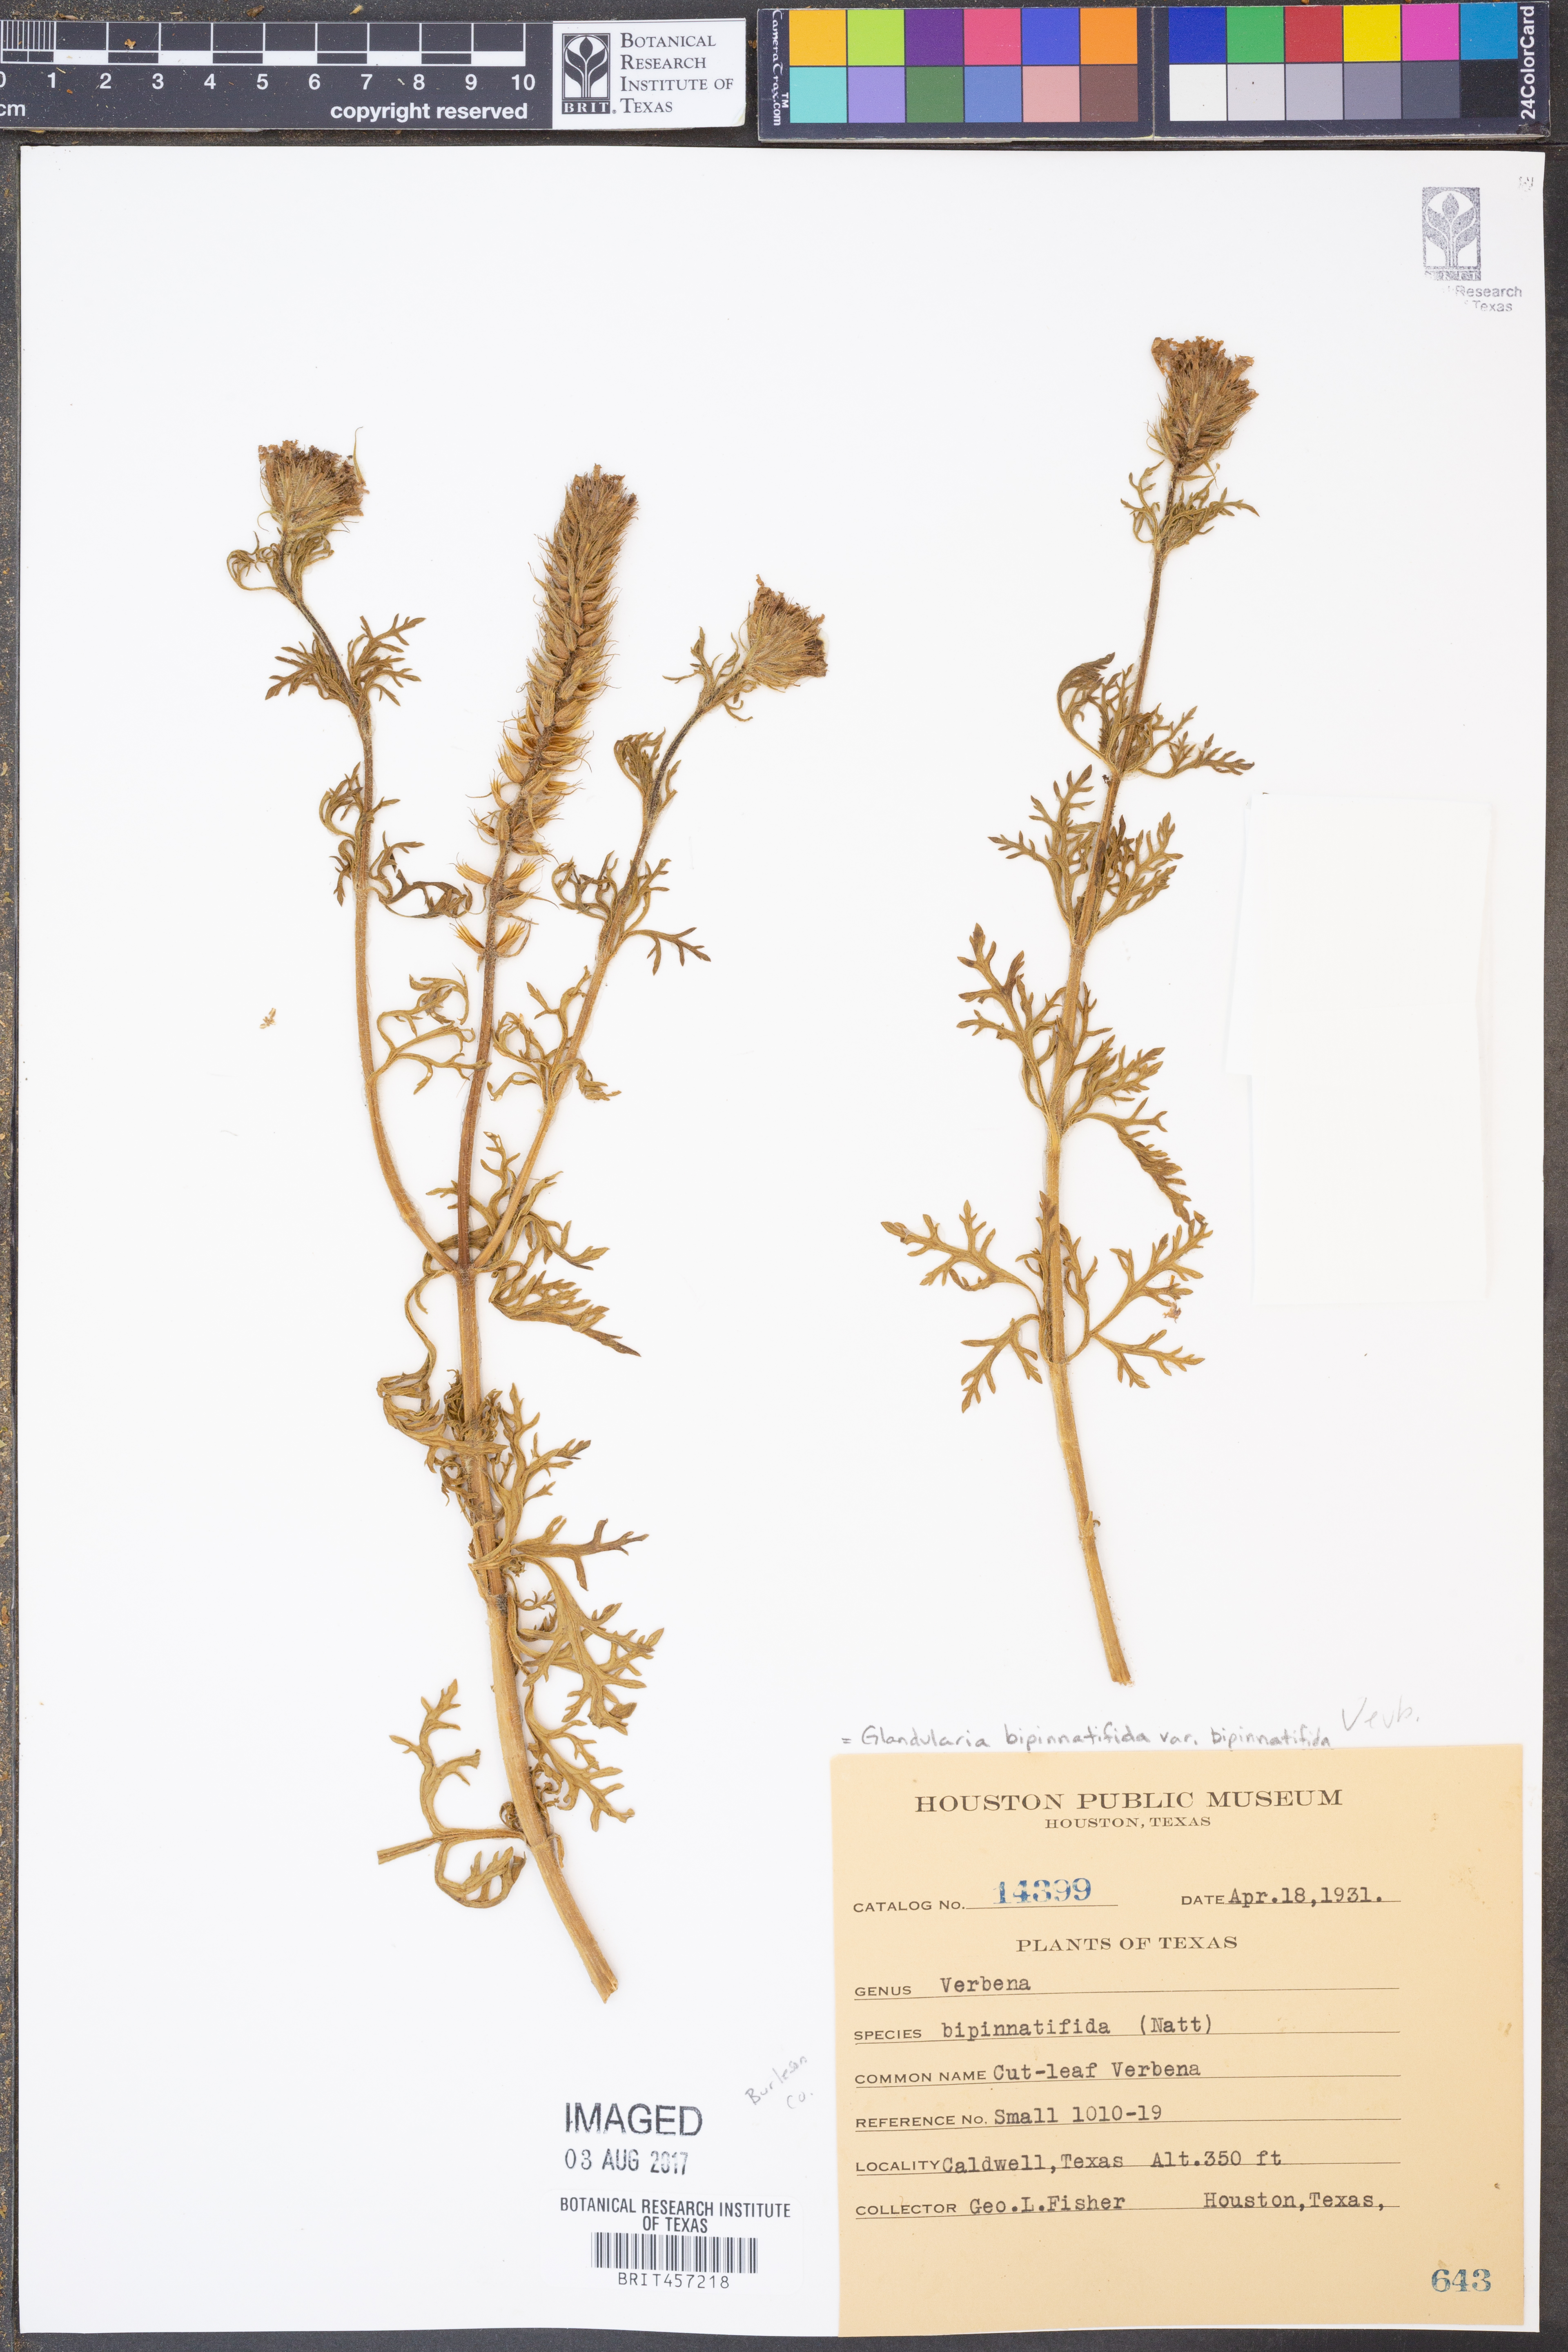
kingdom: Plantae
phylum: Tracheophyta
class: Magnoliopsida
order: Lamiales
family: Verbenaceae
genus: Verbena
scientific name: Verbena bipinnatifida
